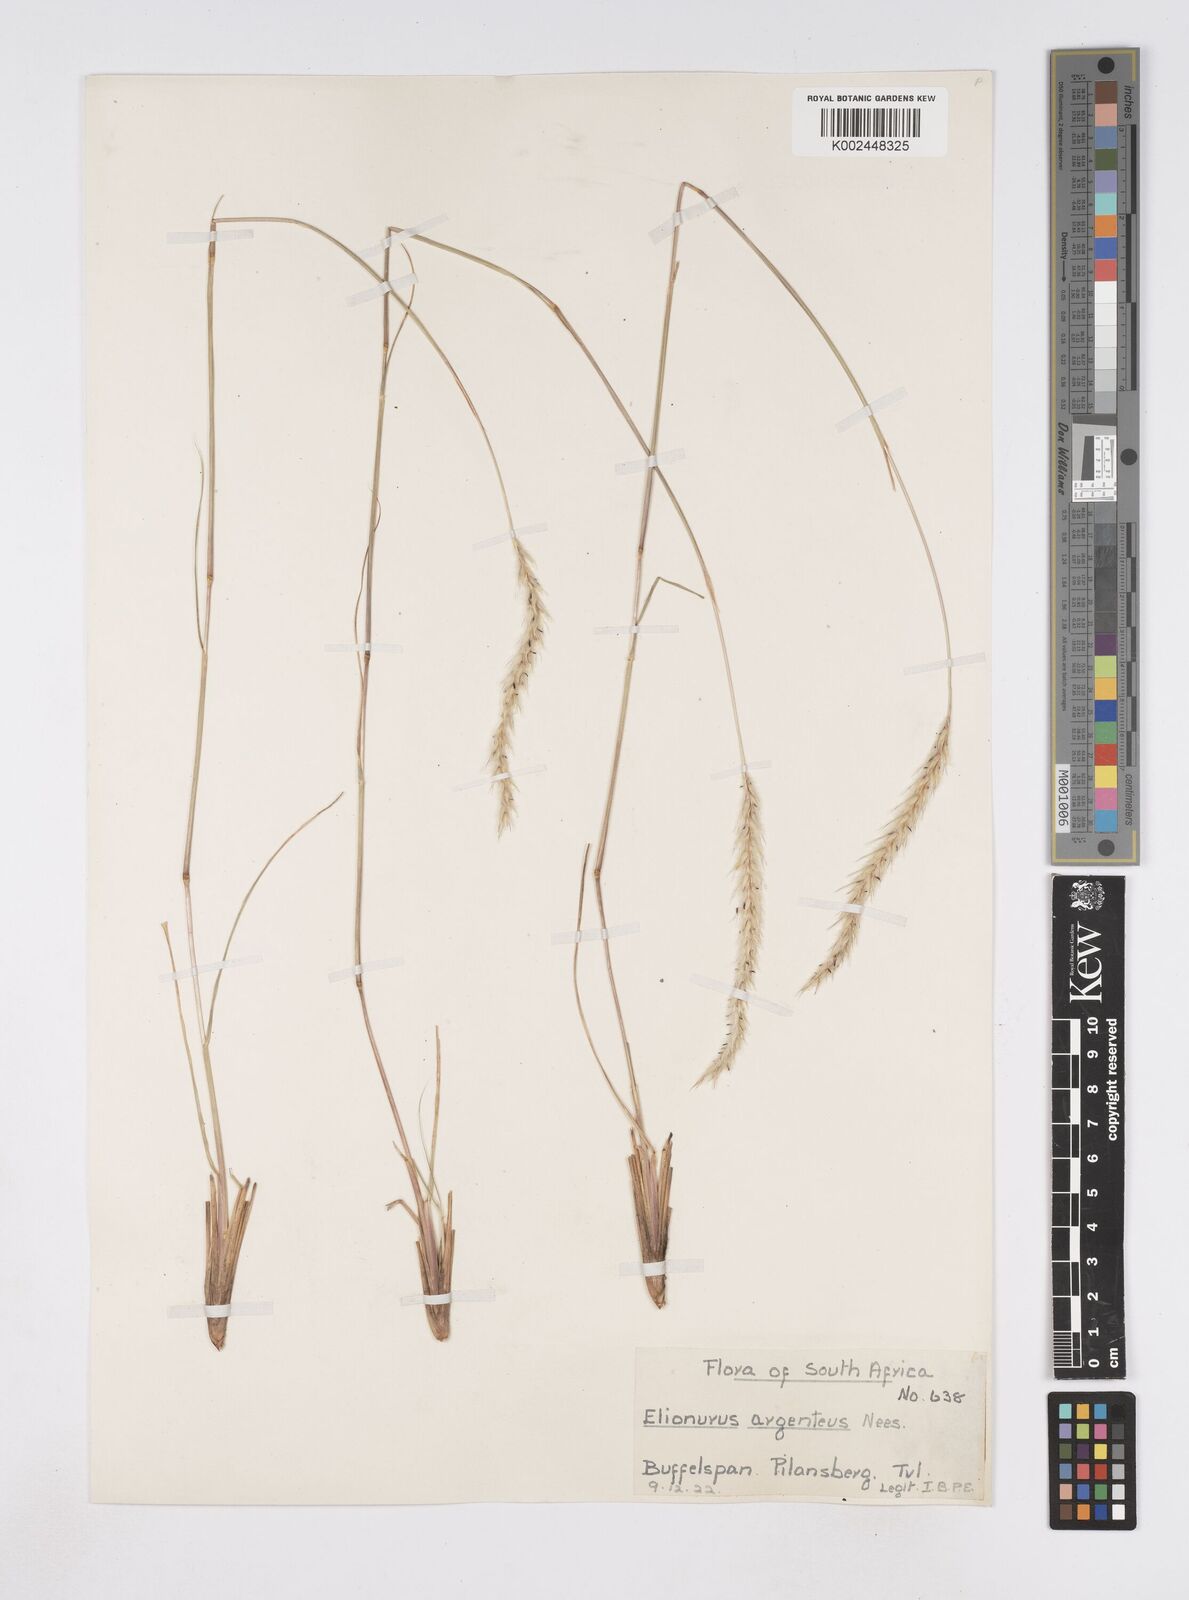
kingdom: Plantae
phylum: Tracheophyta
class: Liliopsida
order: Poales
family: Poaceae
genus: Elionurus
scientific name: Elionurus muticus
